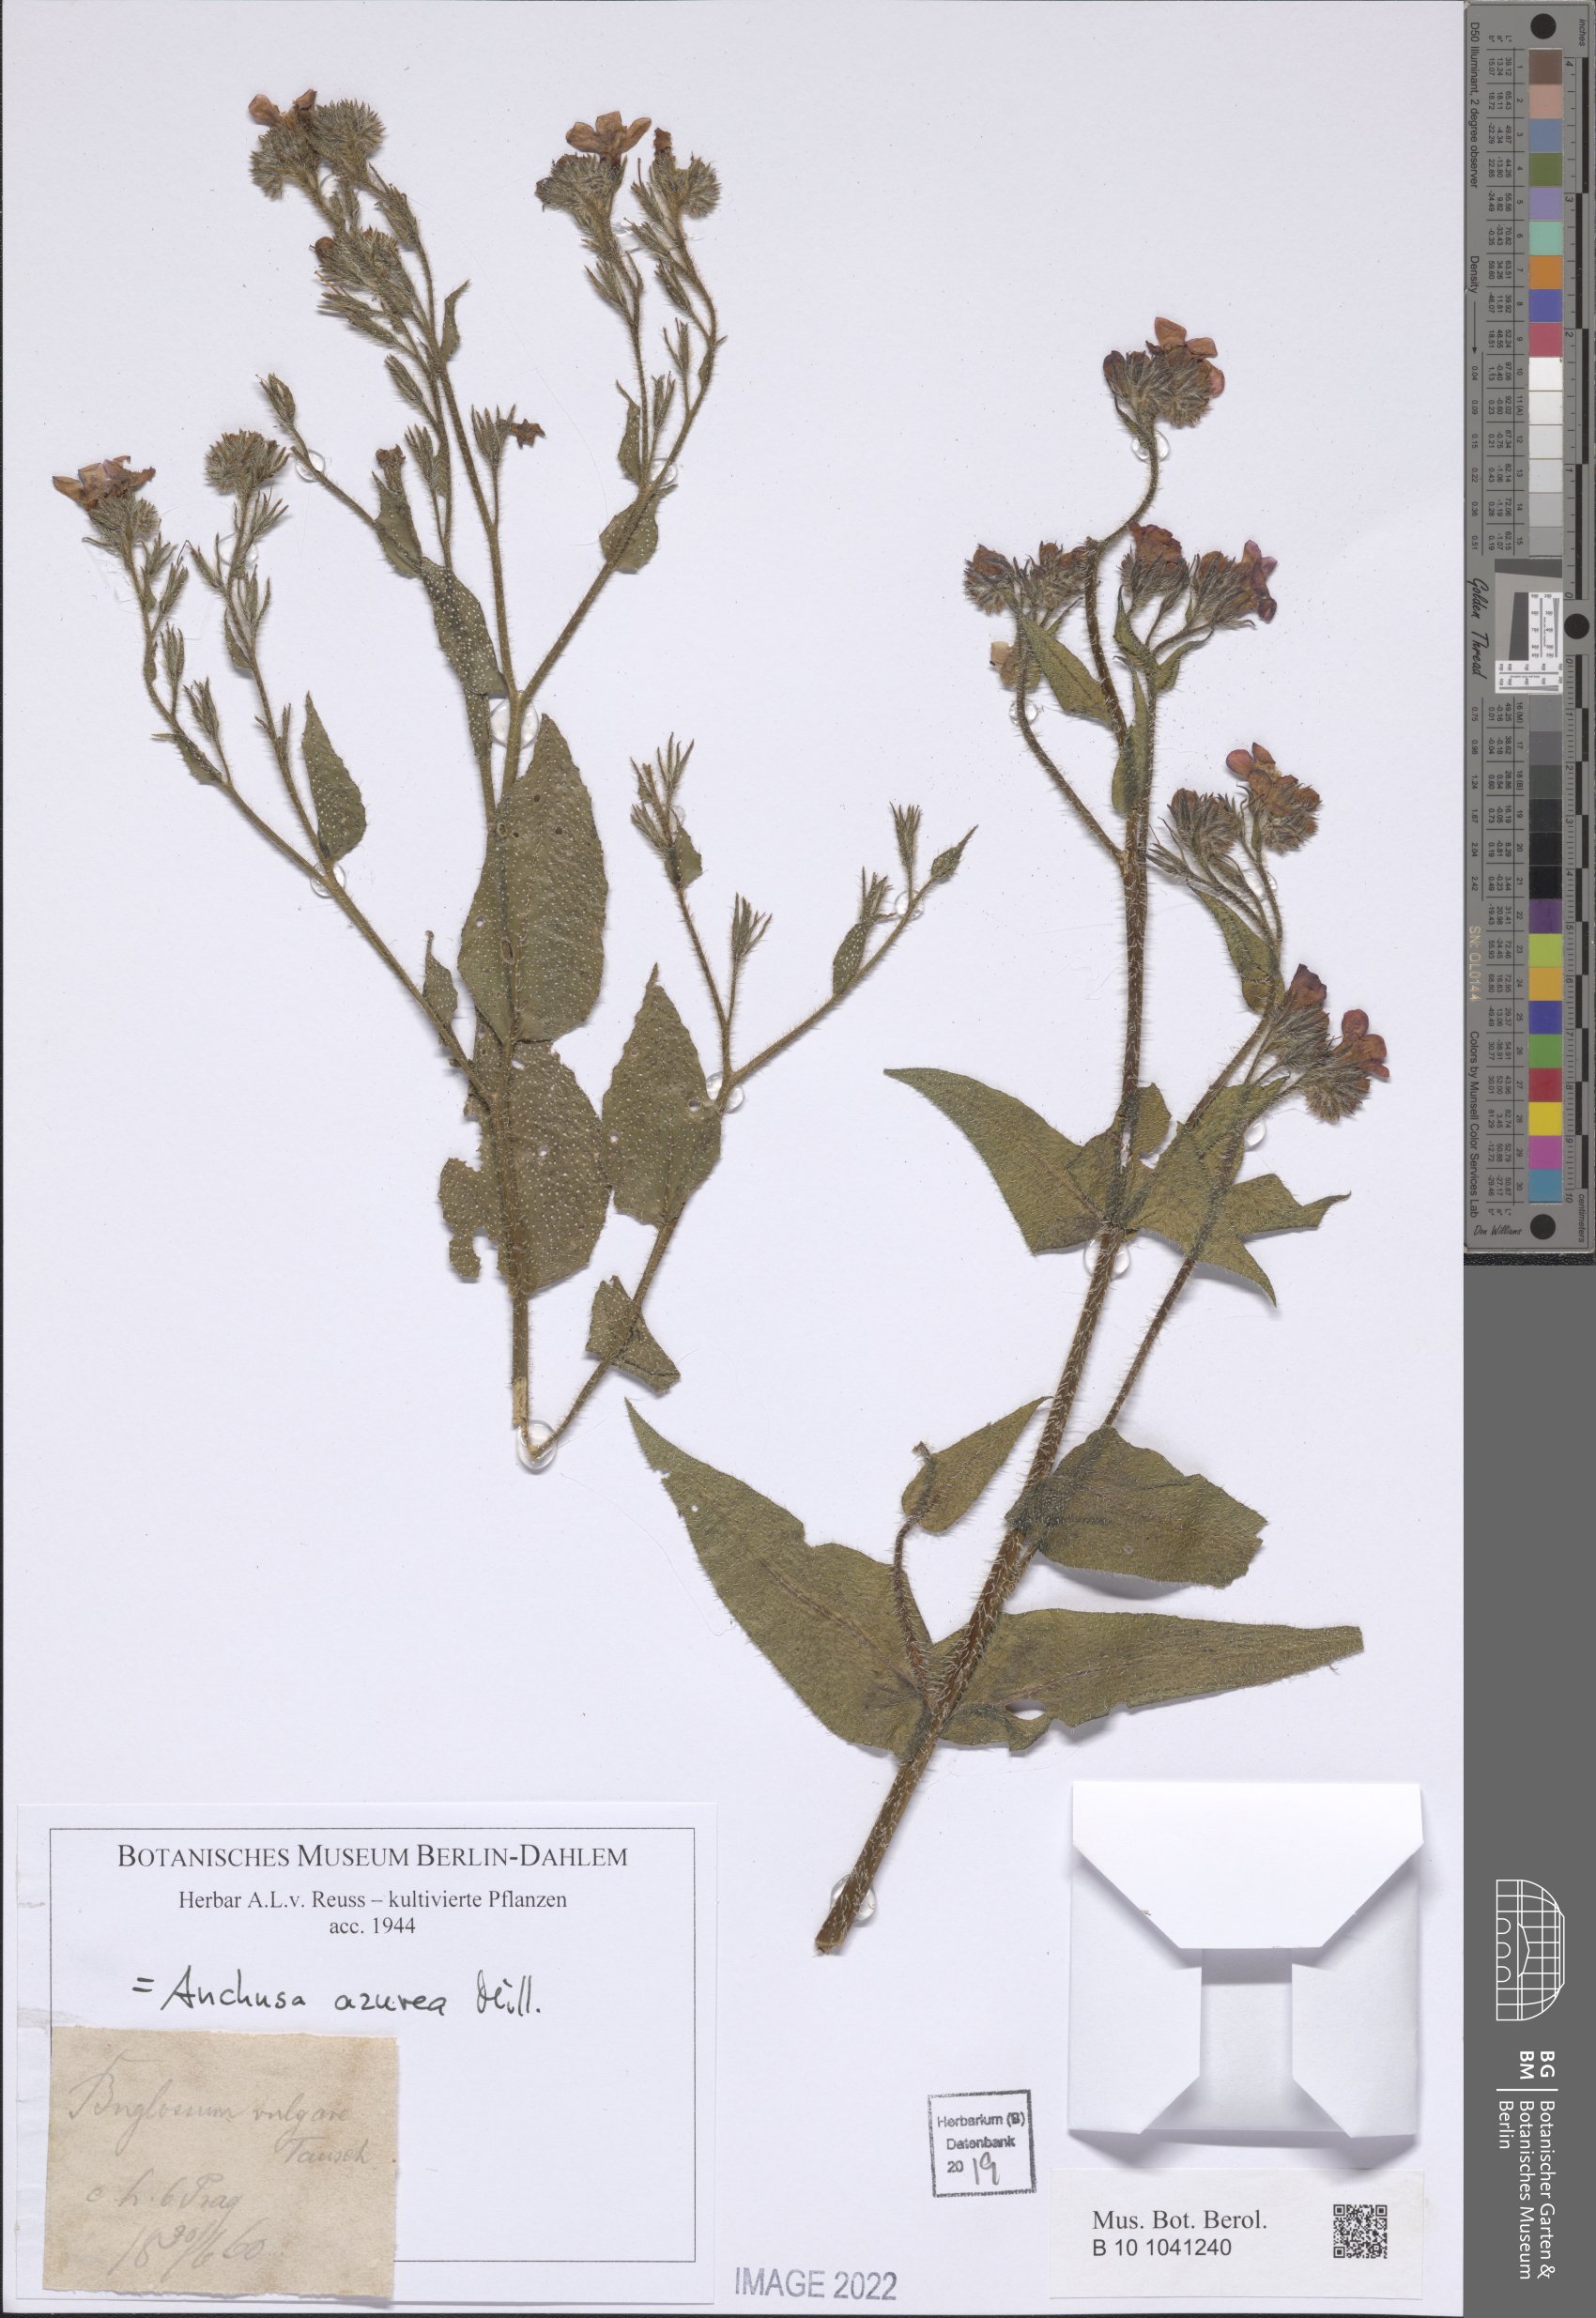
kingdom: Plantae
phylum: Tracheophyta
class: Magnoliopsida
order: Boraginales
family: Boraginaceae
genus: Anchusa
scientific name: Anchusa azurea
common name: Garden anchusa
